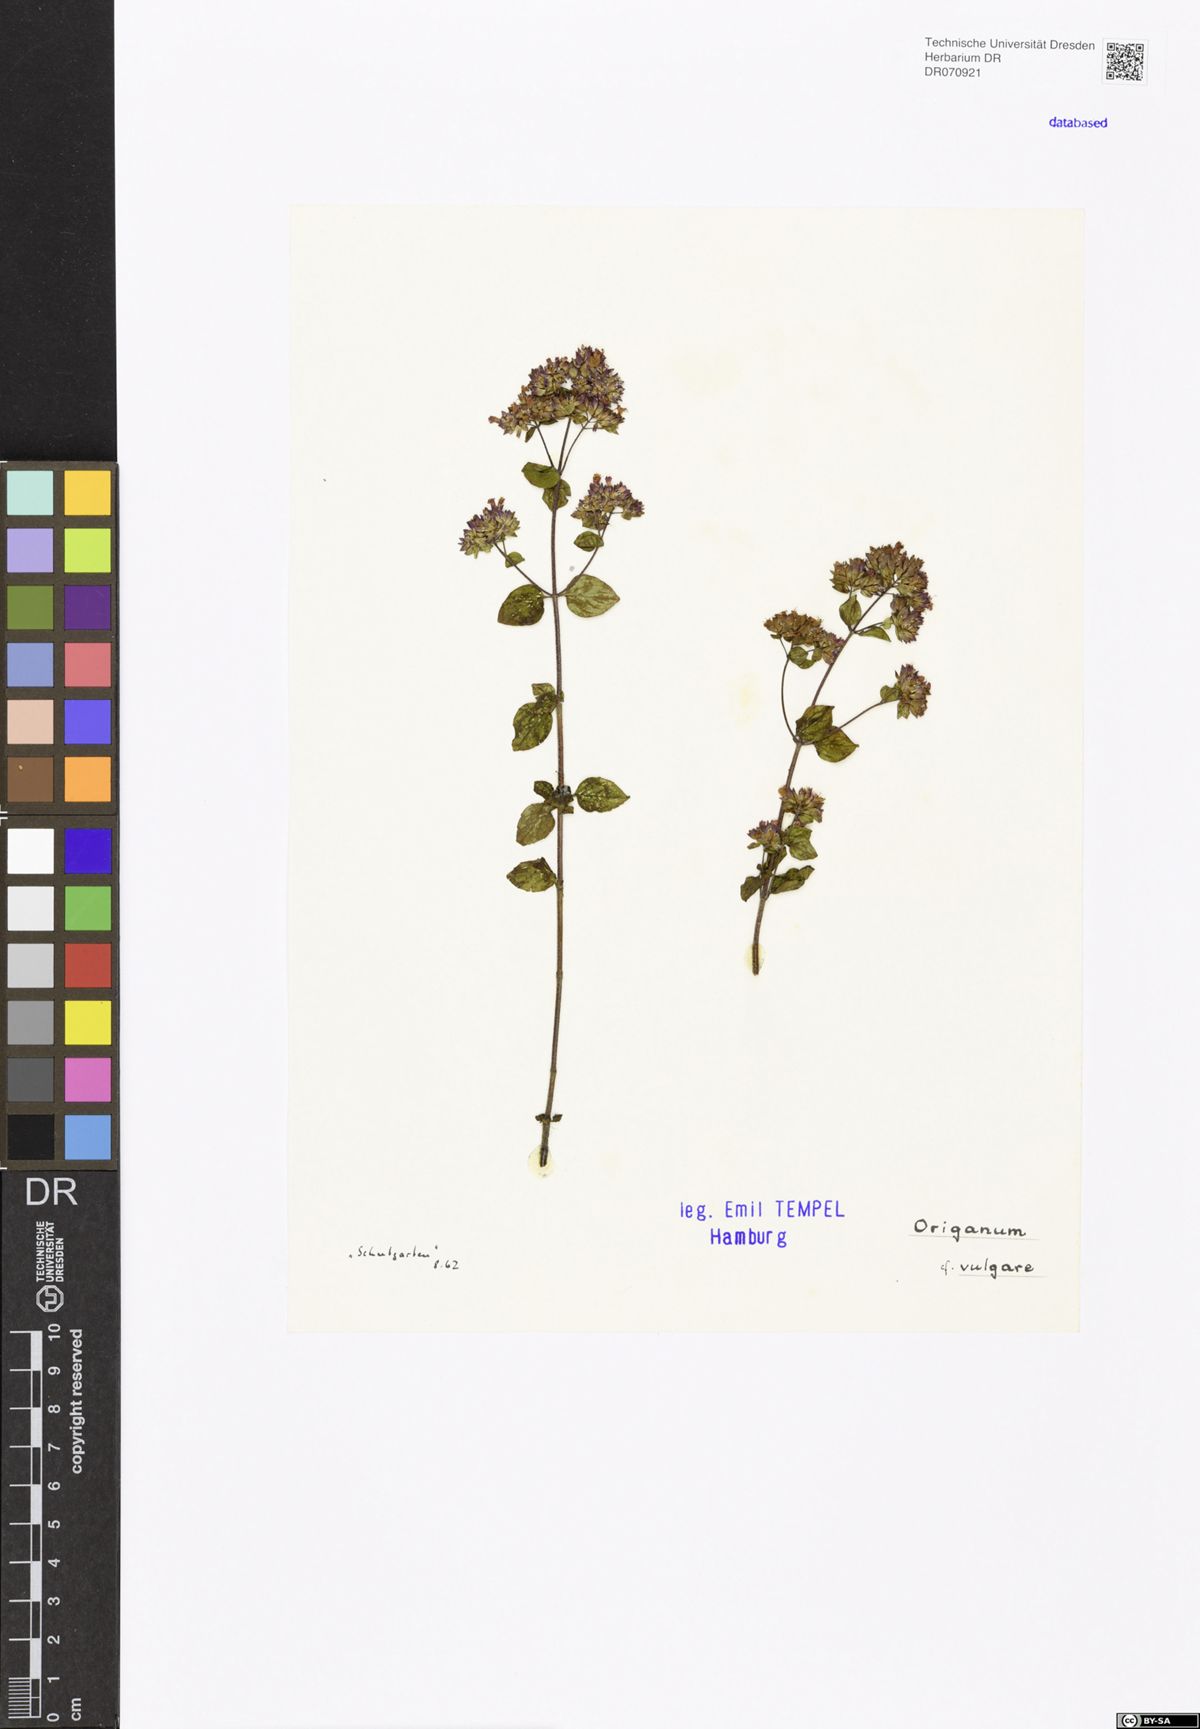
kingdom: Plantae
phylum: Tracheophyta
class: Magnoliopsida
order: Lamiales
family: Lamiaceae
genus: Origanum
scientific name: Origanum vulgare
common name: Wild marjoram
